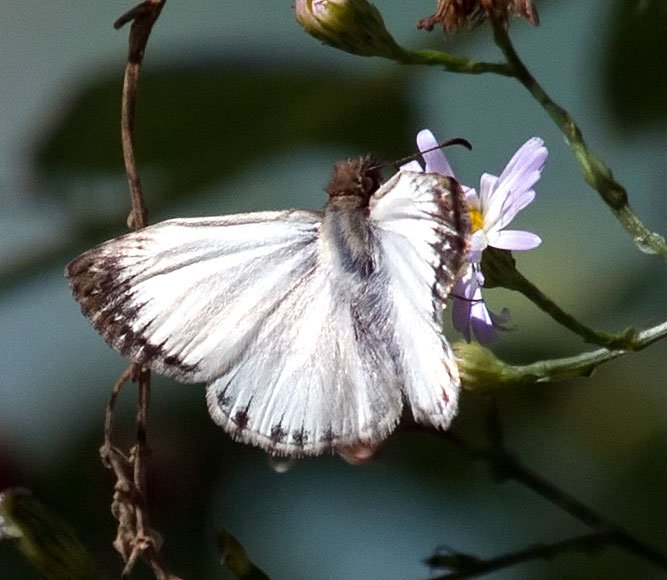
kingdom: Animalia
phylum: Arthropoda
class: Insecta
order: Lepidoptera
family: Hesperiidae
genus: Heliopetes
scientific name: Heliopetes macaira
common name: Turk's-cap White-Skipper
